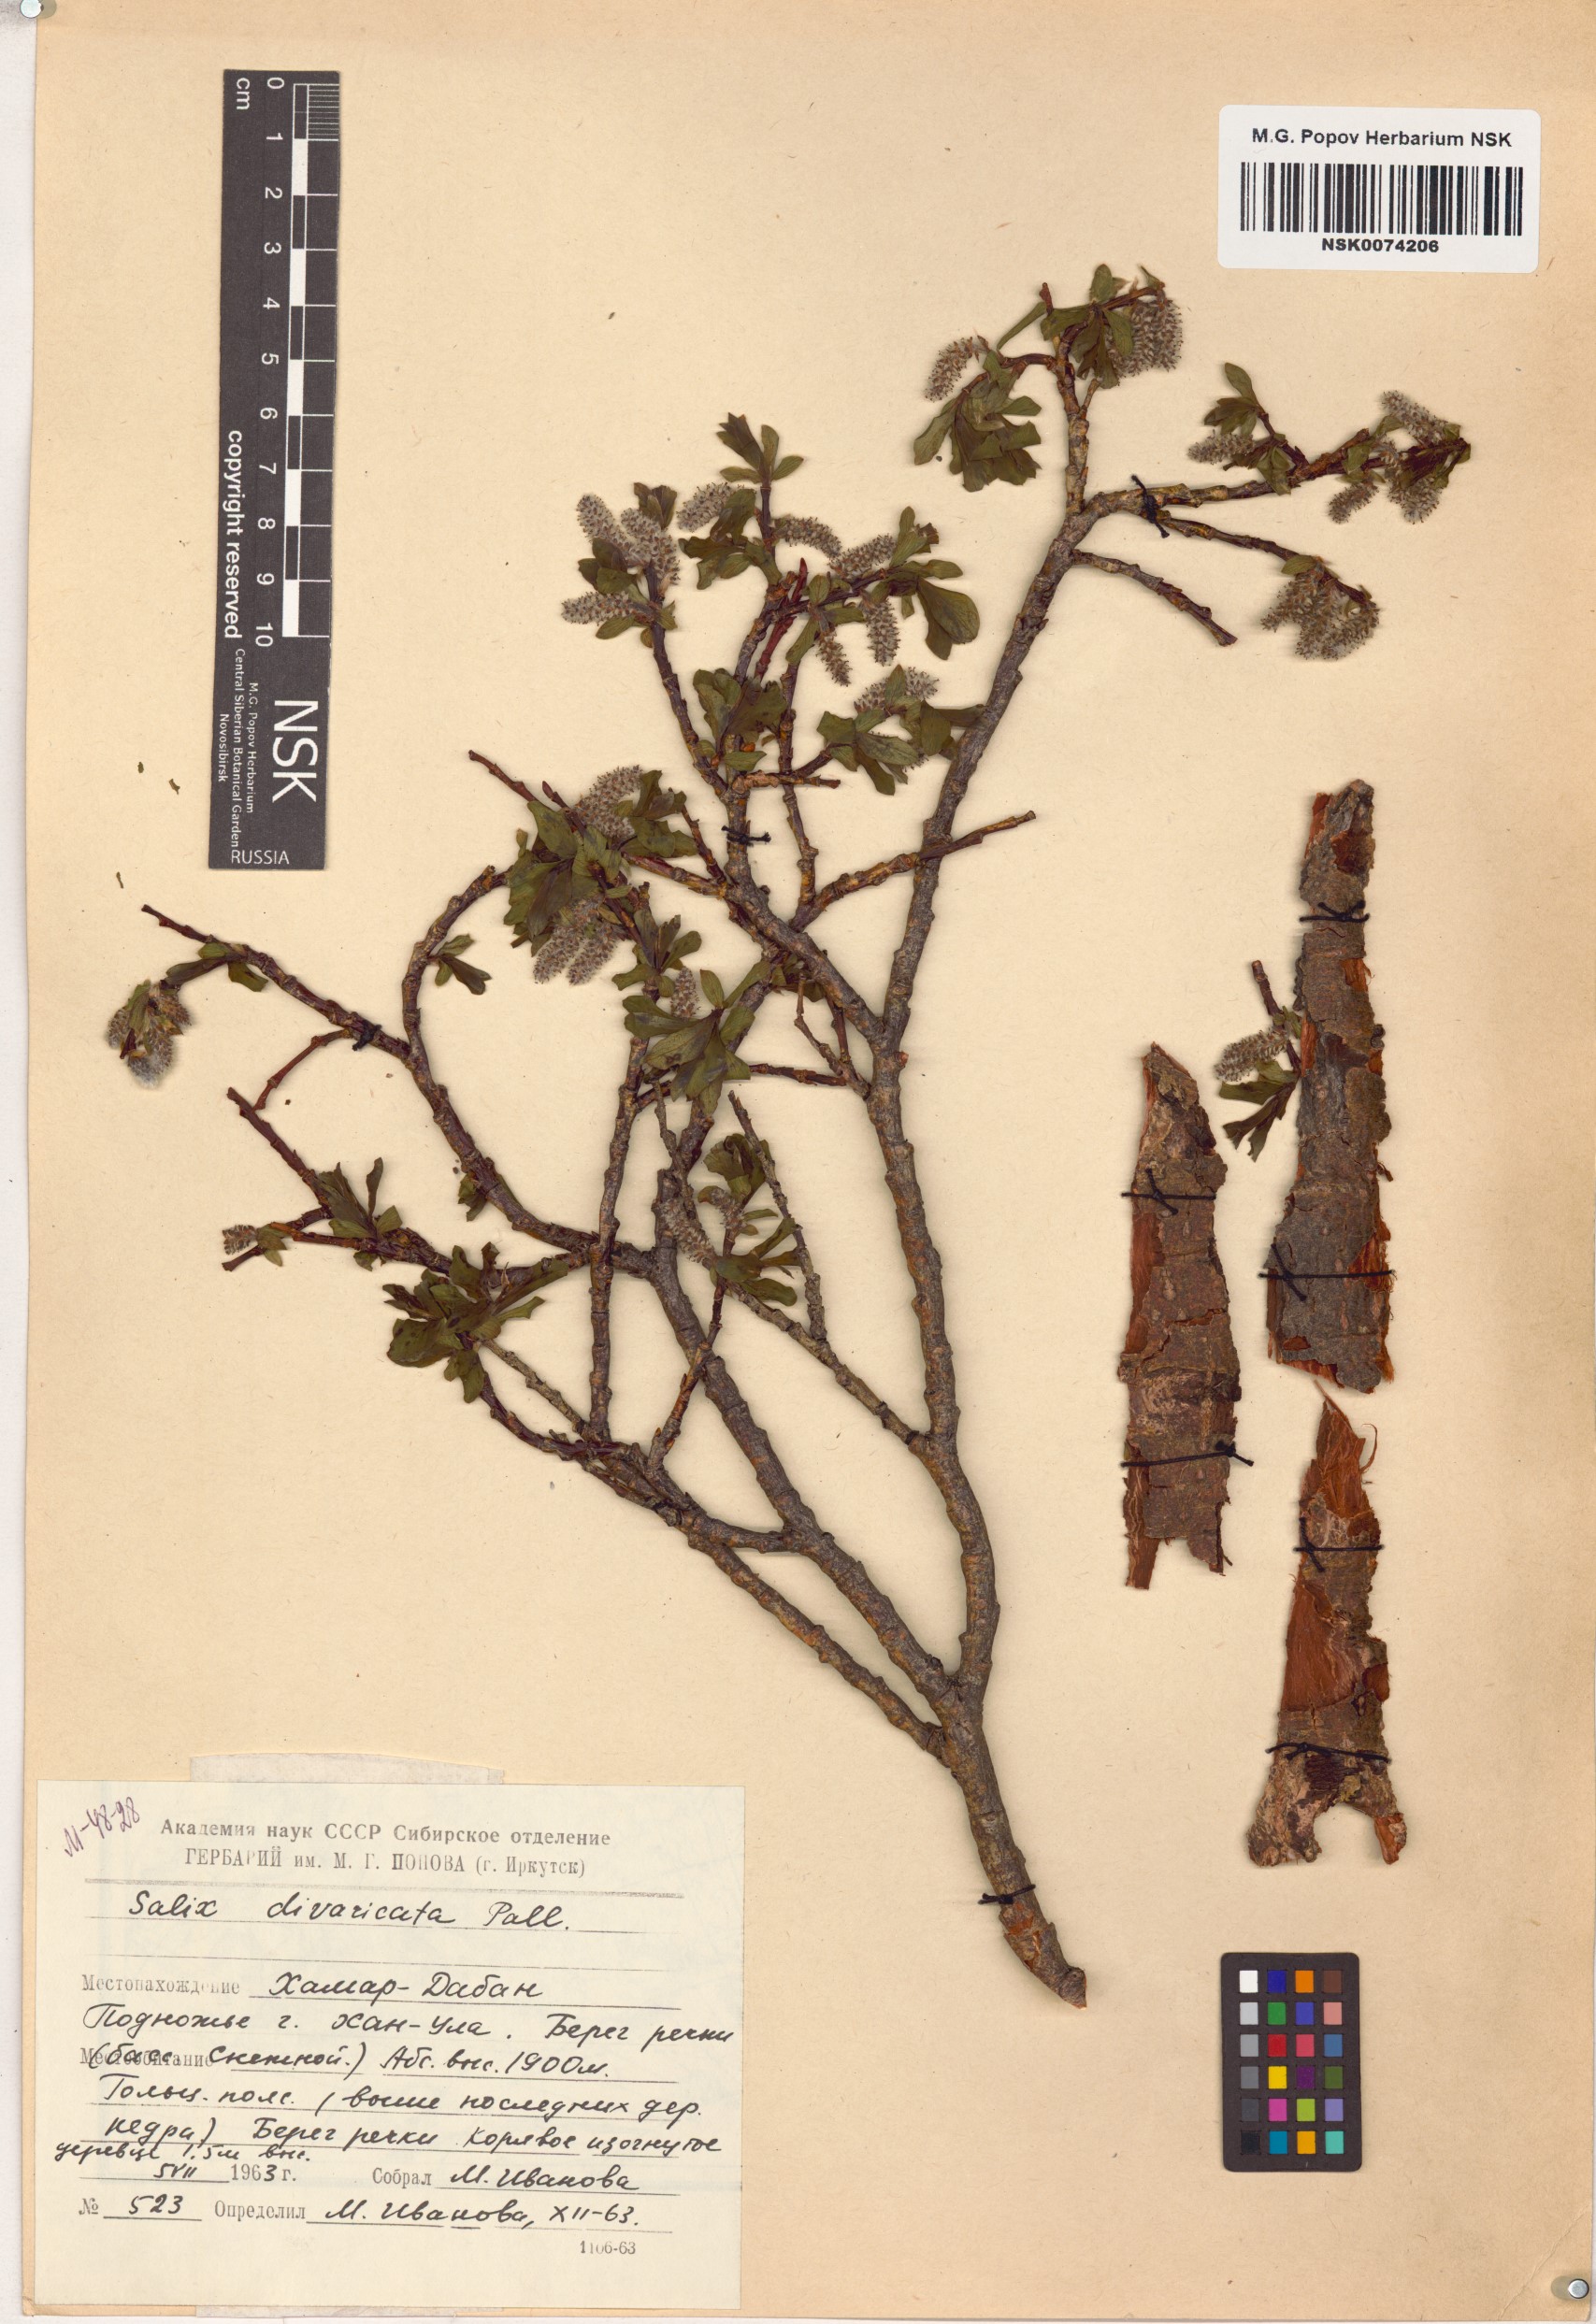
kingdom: Plantae
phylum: Tracheophyta
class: Magnoliopsida
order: Malpighiales
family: Salicaceae
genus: Salix
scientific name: Salix divaricata
